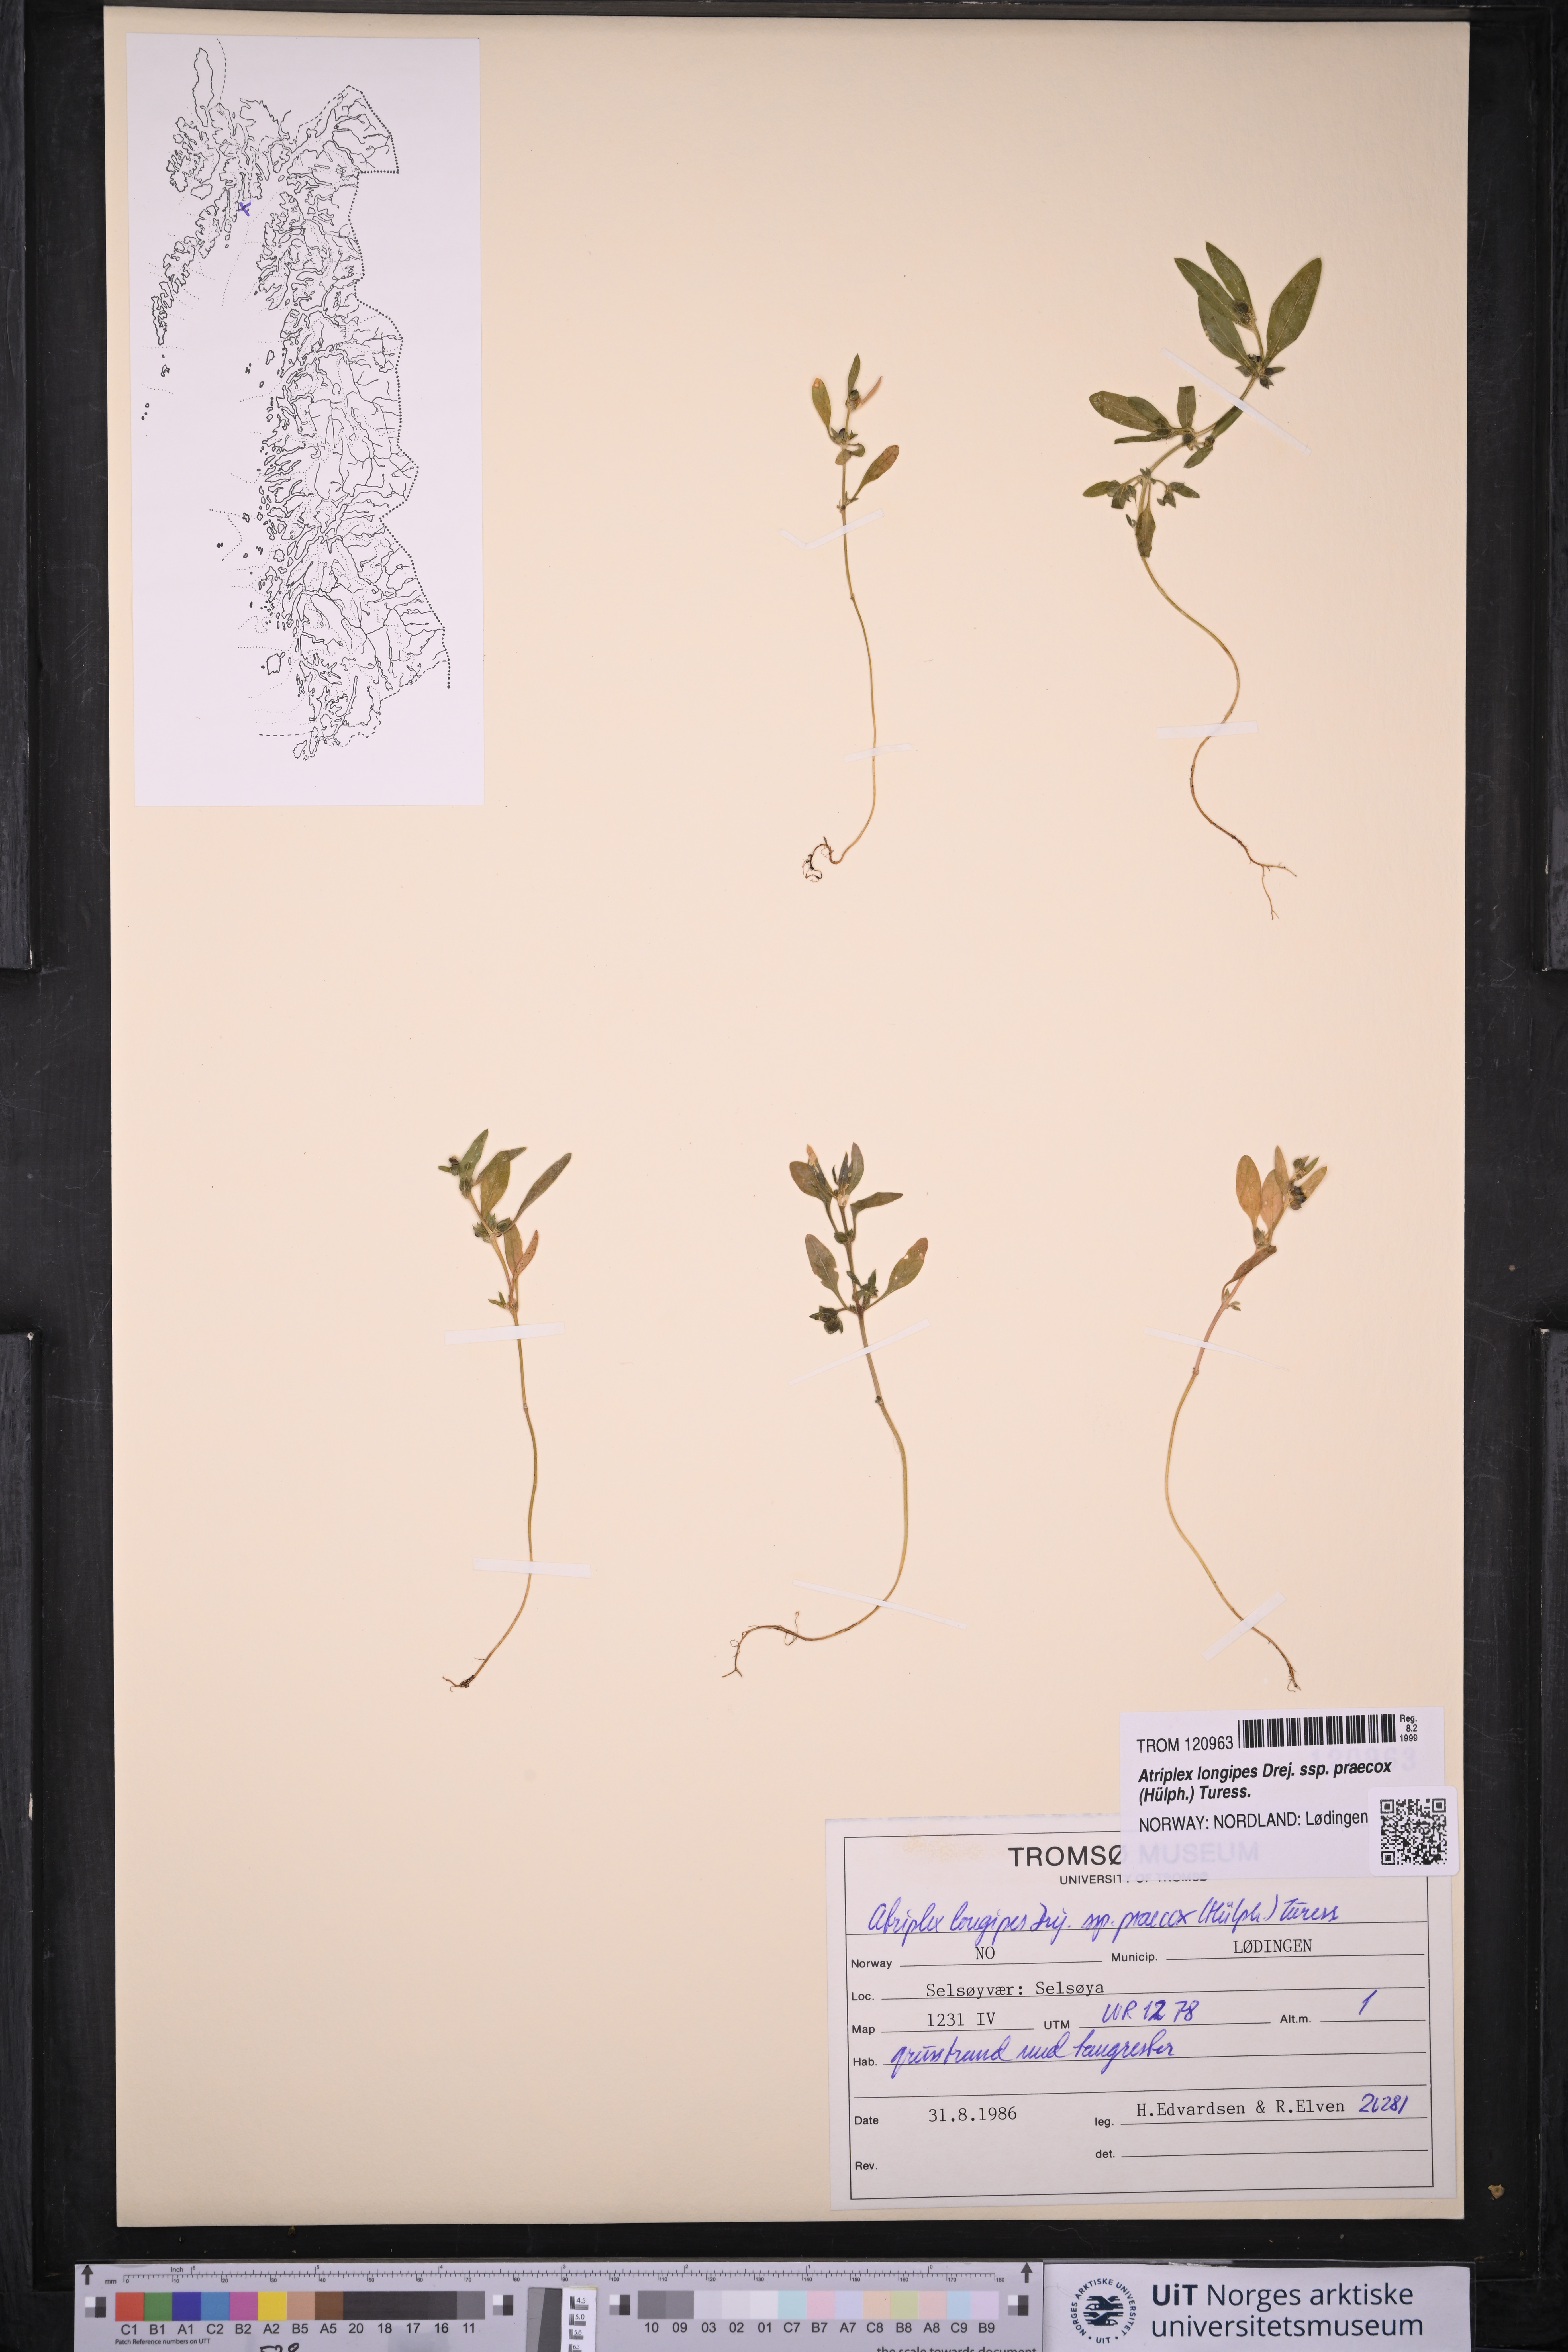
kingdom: Plantae
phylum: Tracheophyta
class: Magnoliopsida
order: Caryophyllales
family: Amaranthaceae
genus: Atriplex
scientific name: Atriplex praecox
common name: Early orache
